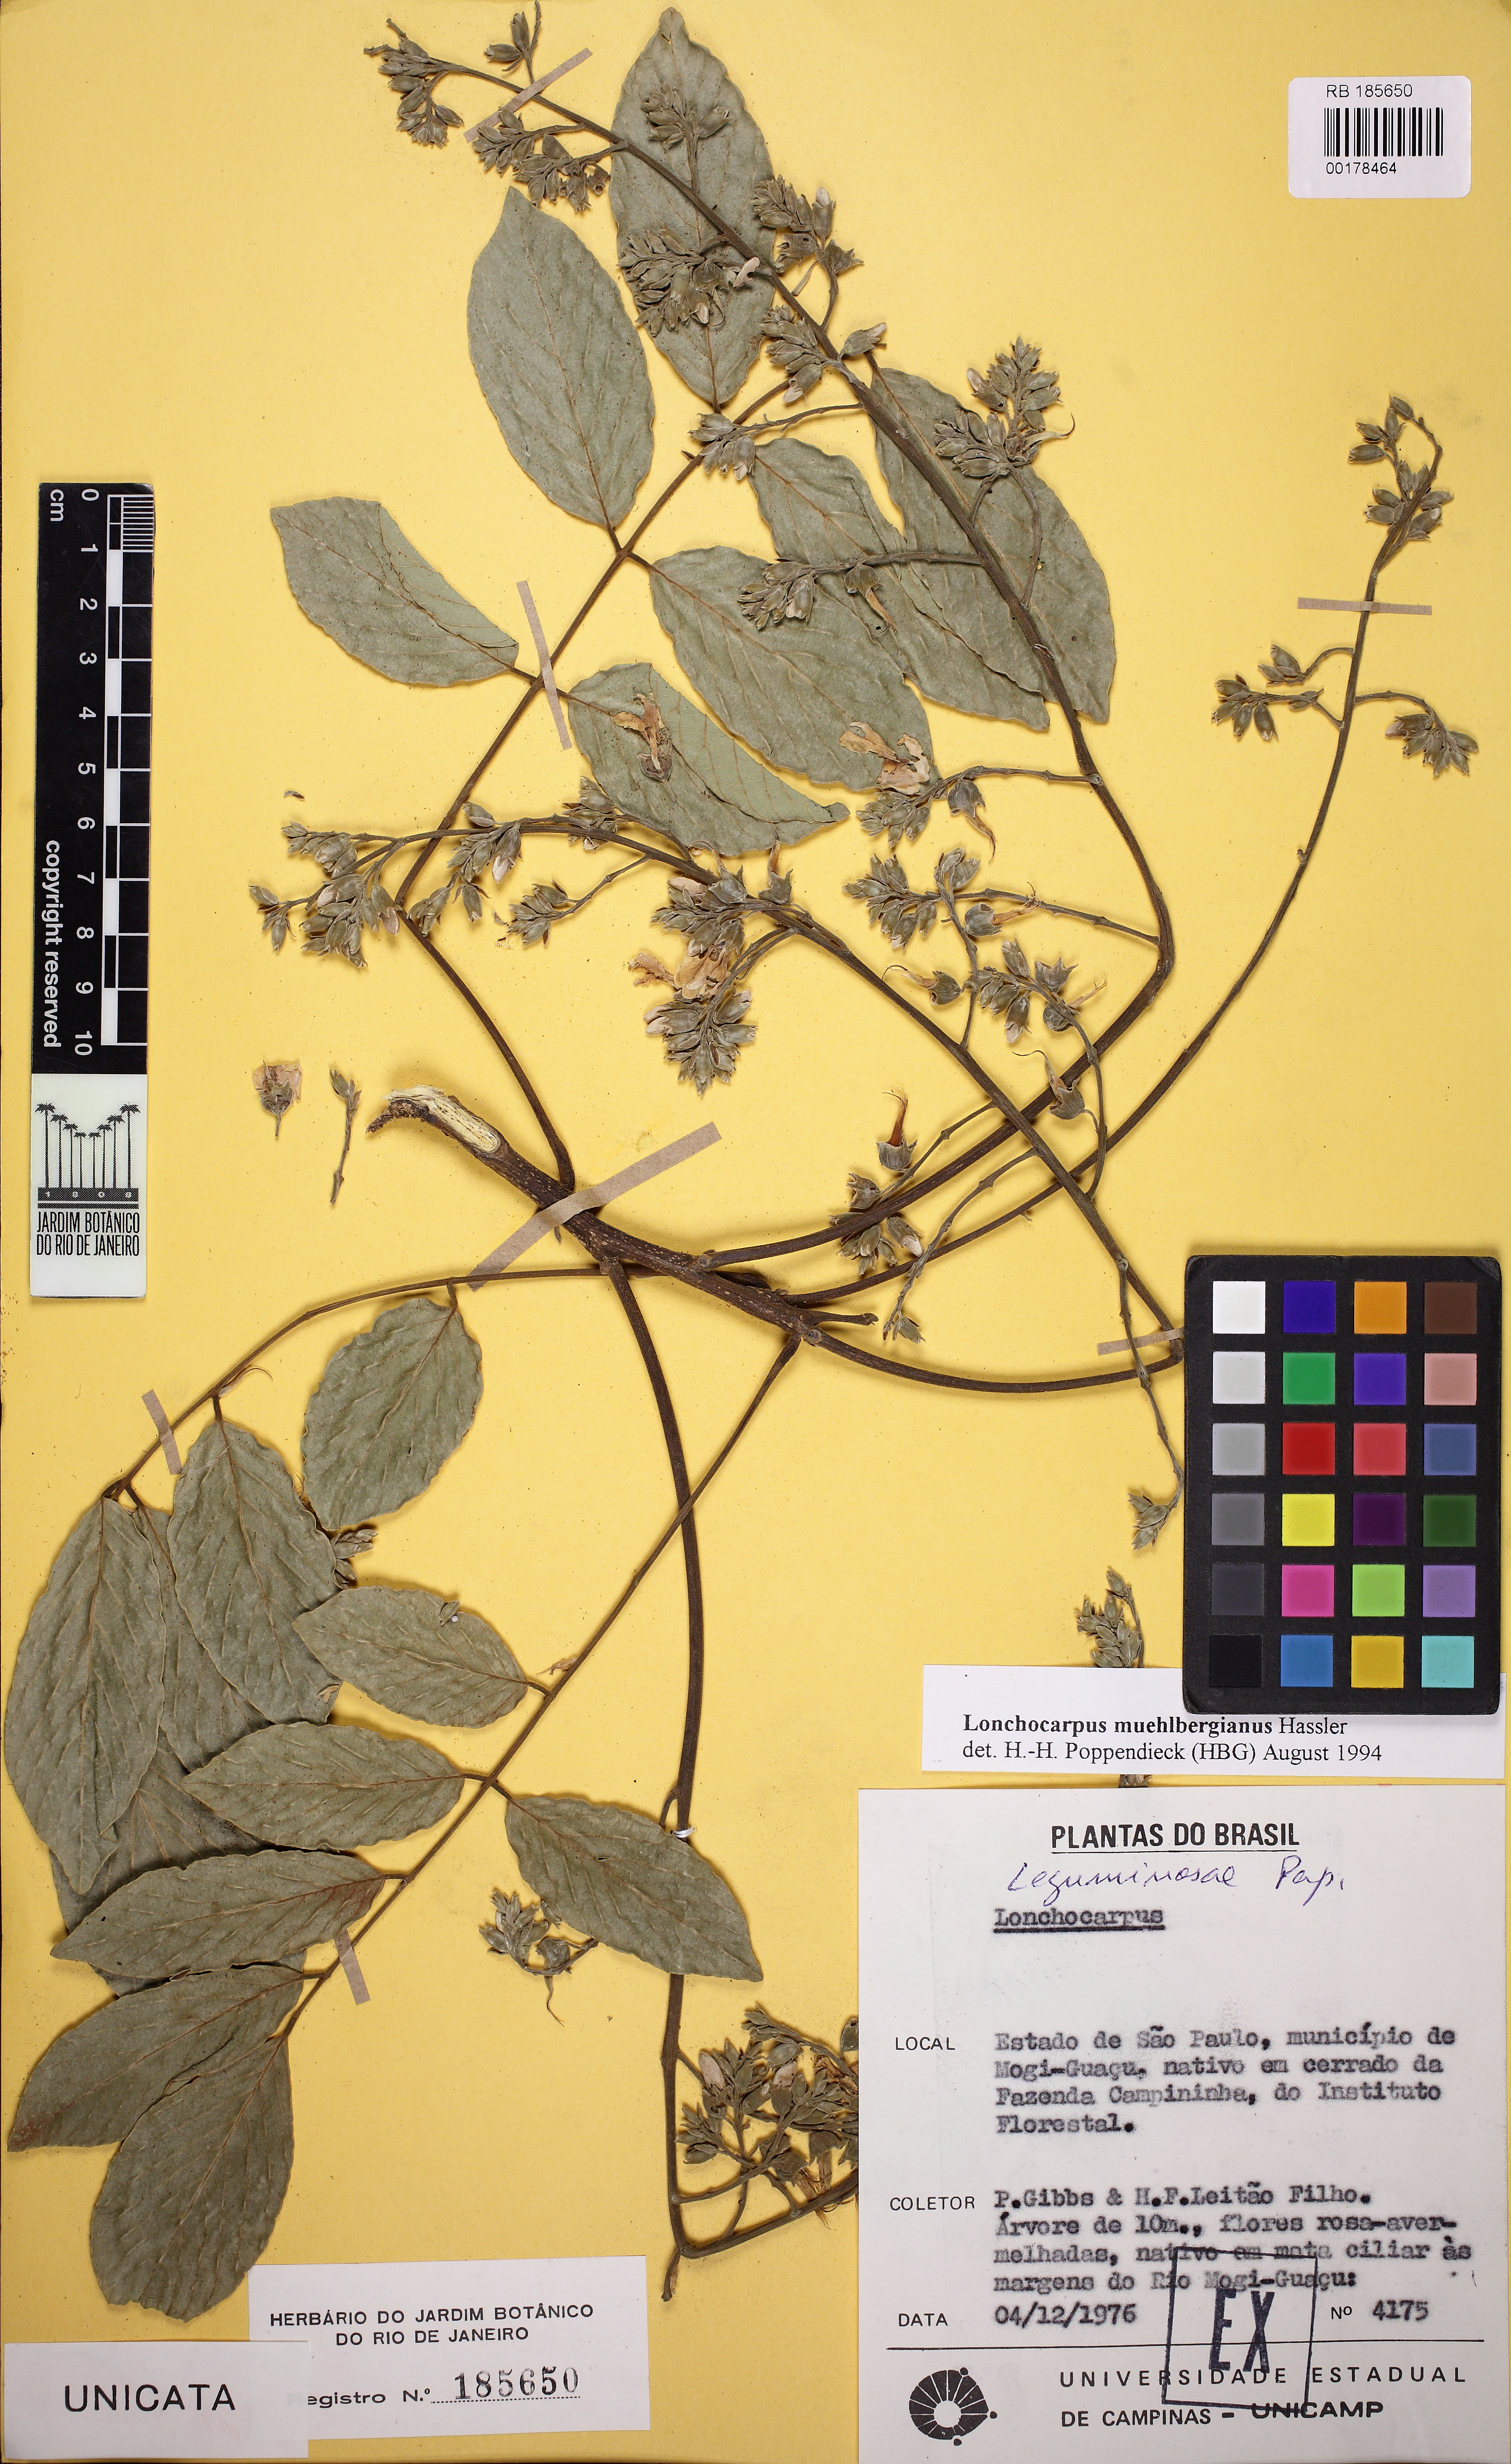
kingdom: Plantae
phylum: Tracheophyta
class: Magnoliopsida
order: Fabales
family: Fabaceae
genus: Dahlstedtia
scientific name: Dahlstedtia muehlbergiana
